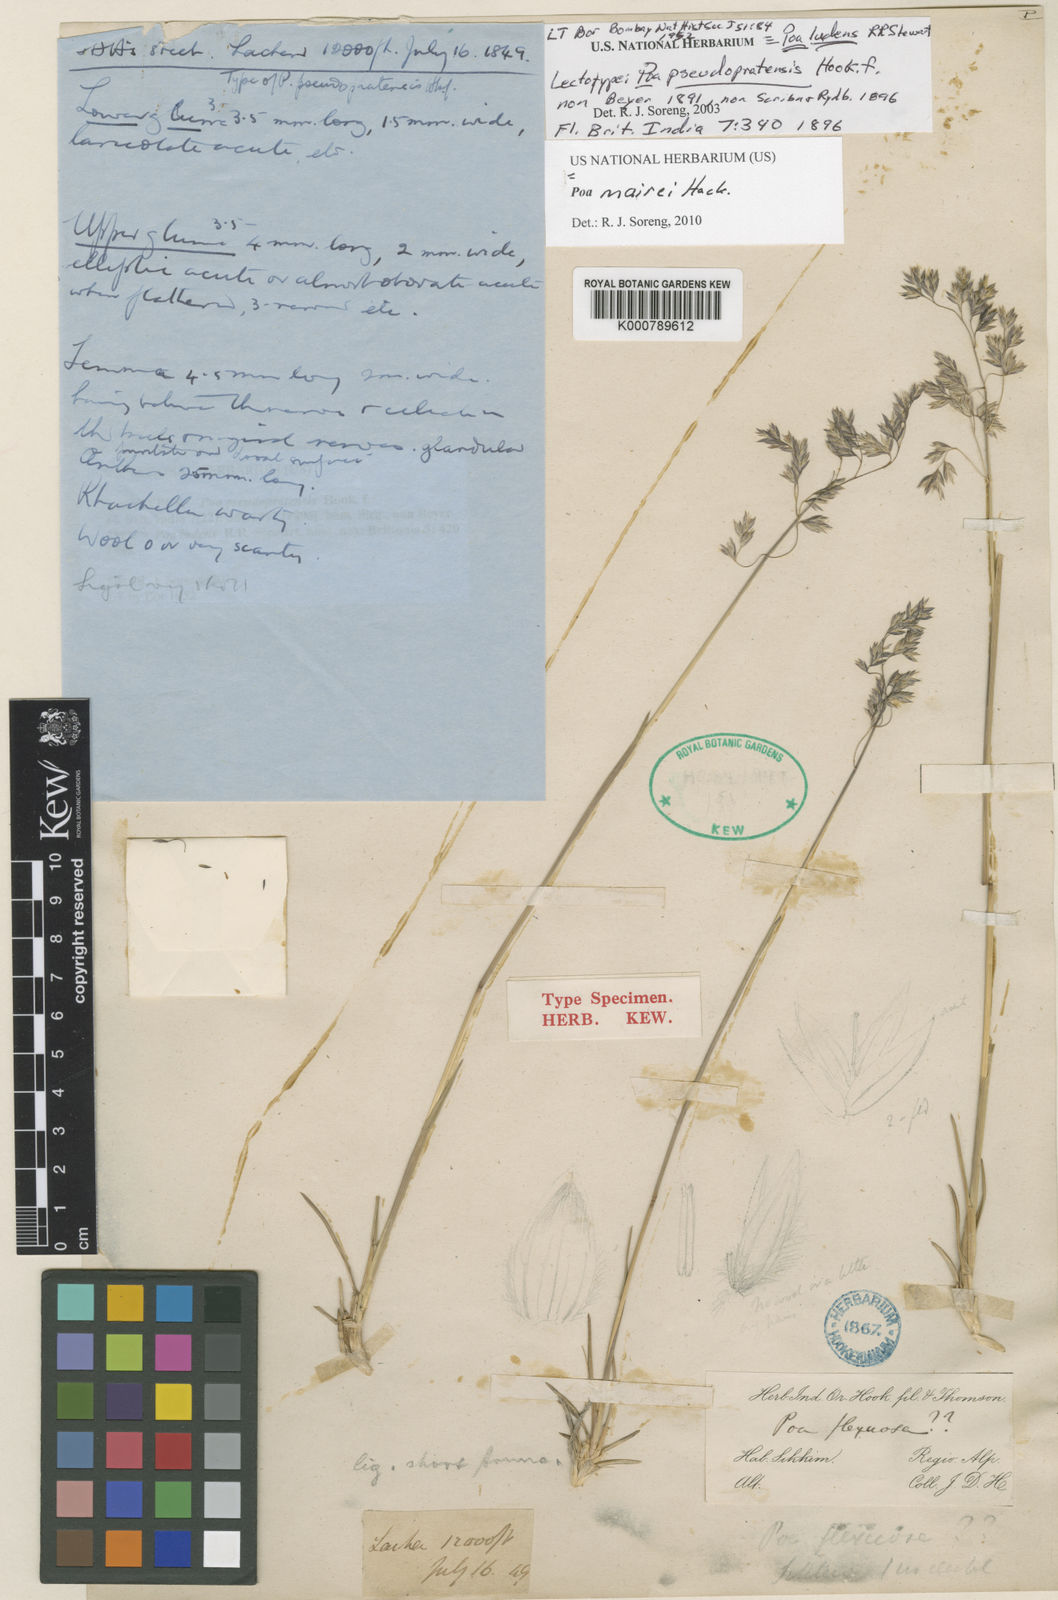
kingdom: Plantae
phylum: Tracheophyta
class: Liliopsida
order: Poales
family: Poaceae
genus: Poa
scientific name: Poa mairei
